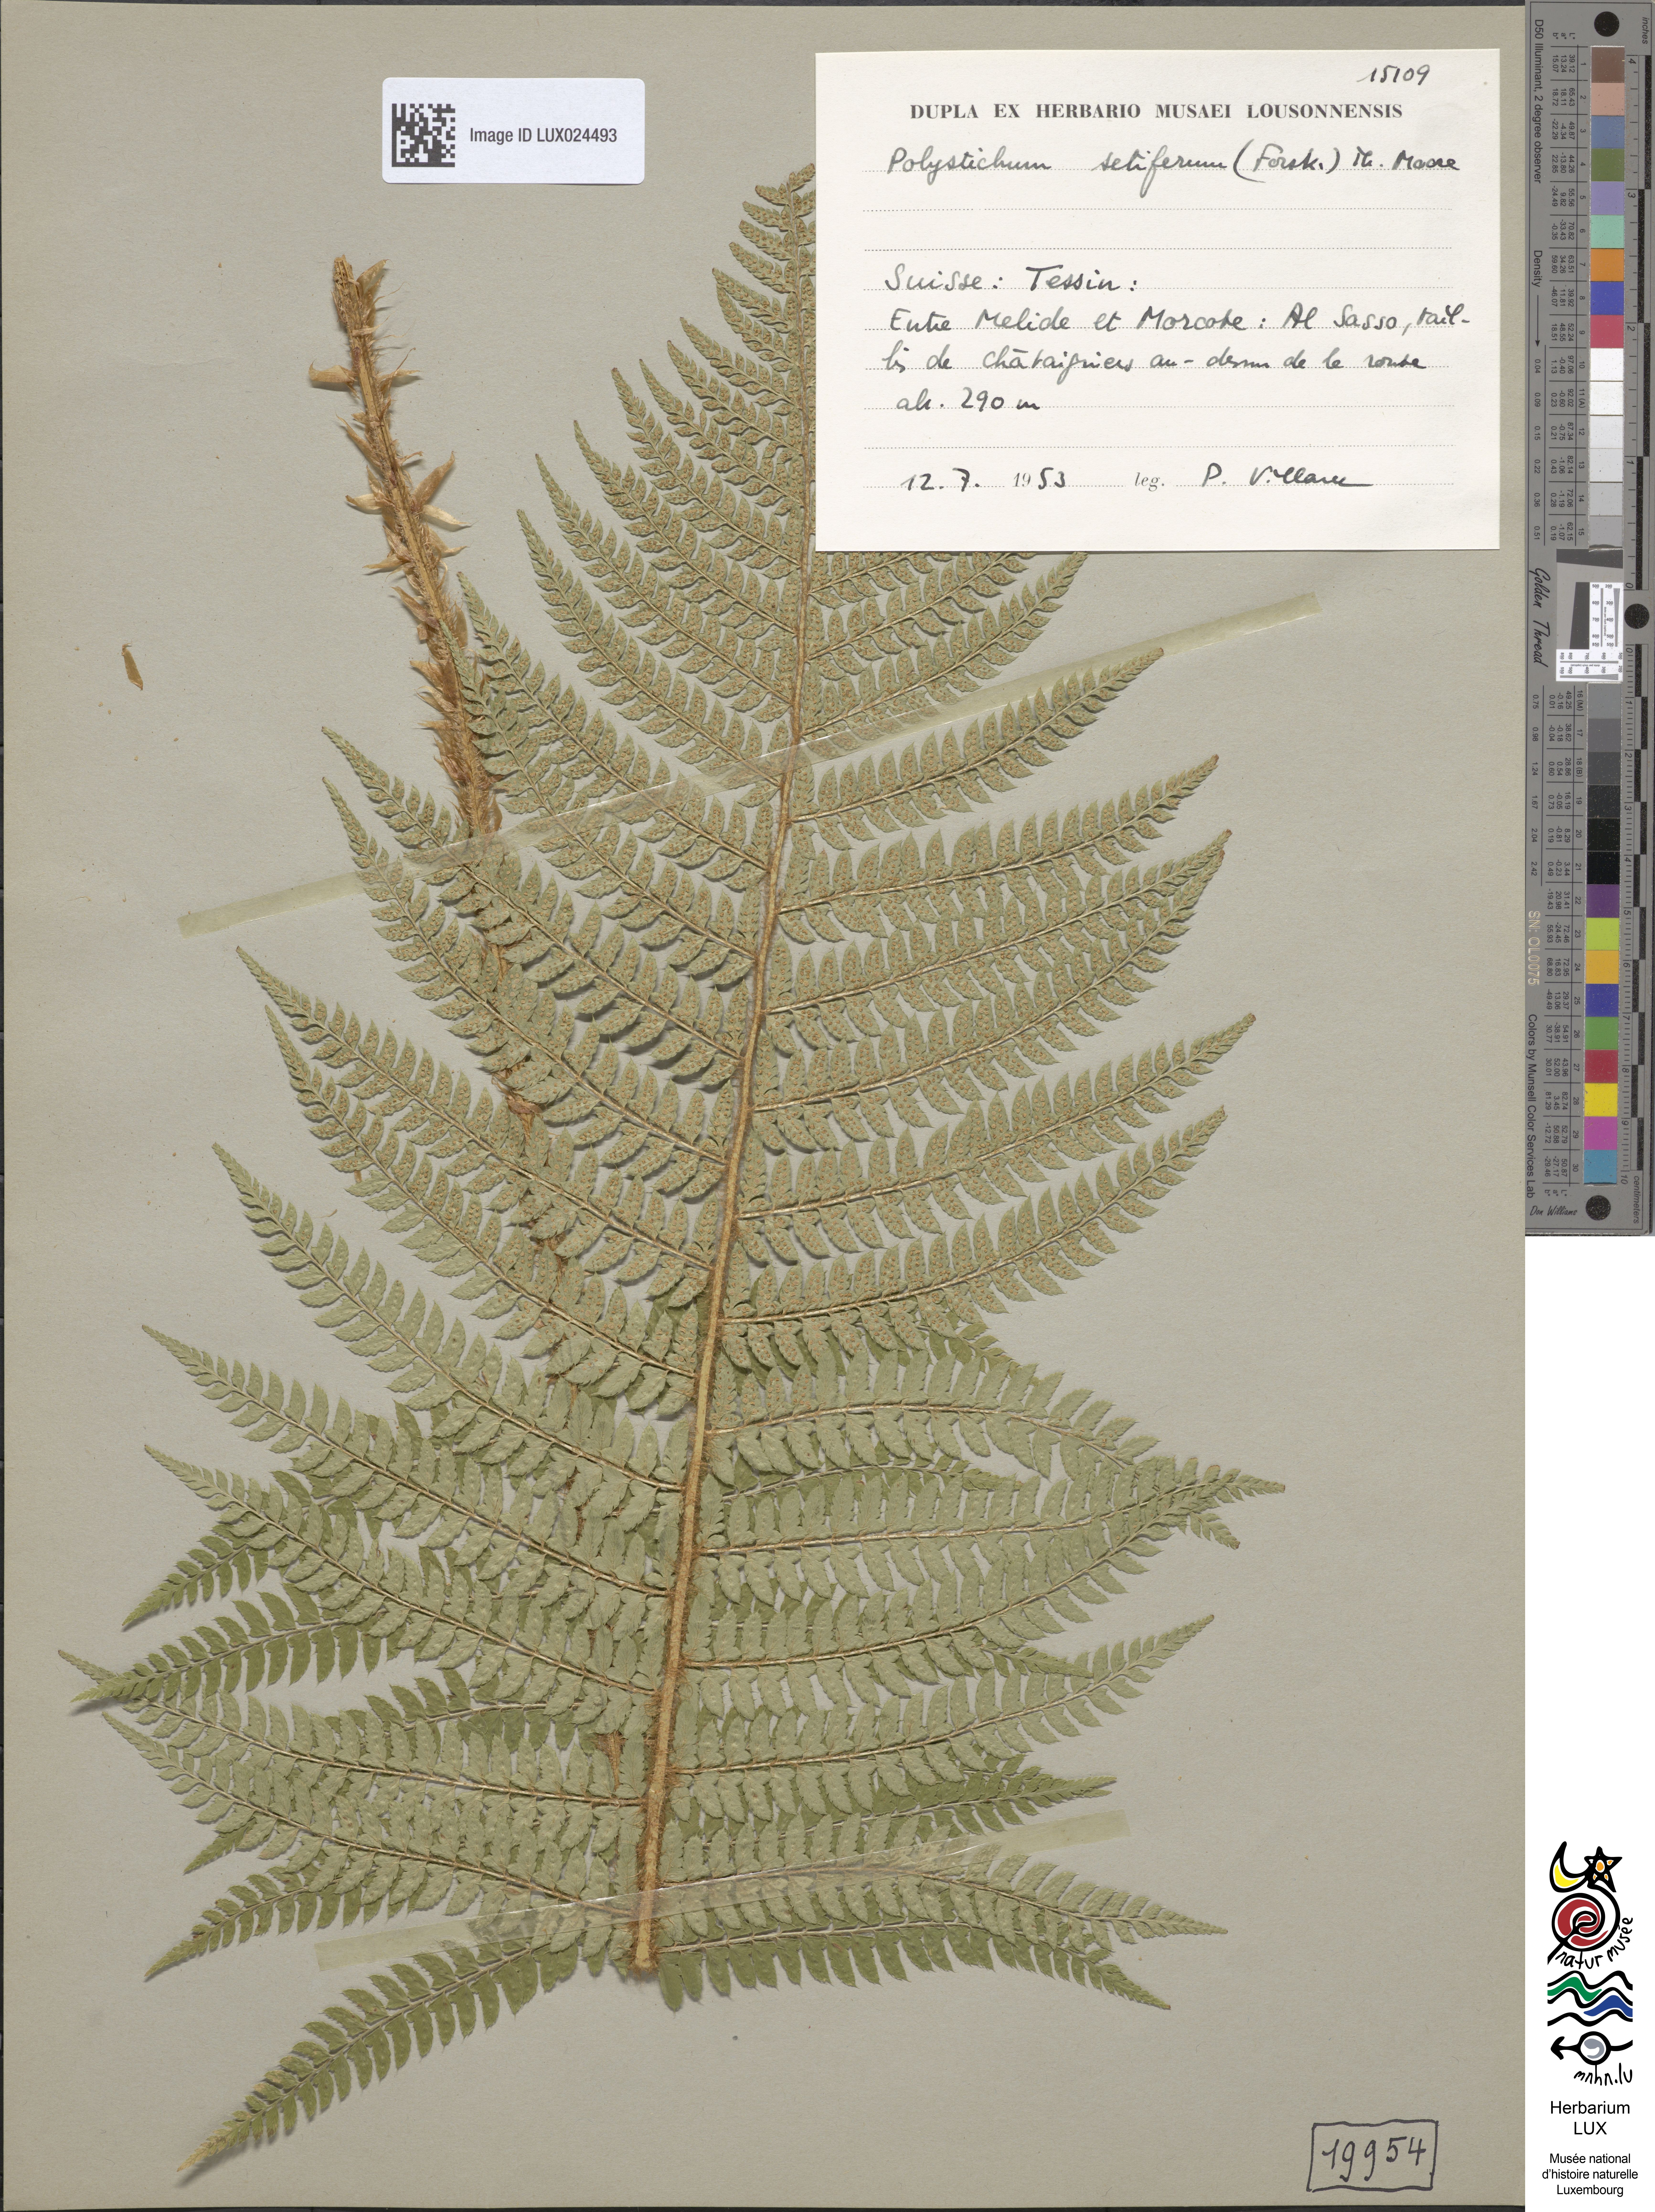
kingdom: Plantae
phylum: Tracheophyta
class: Polypodiopsida
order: Polypodiales
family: Dryopteridaceae
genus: Polystichum
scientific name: Polystichum setiferum
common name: Soft shield-fern
